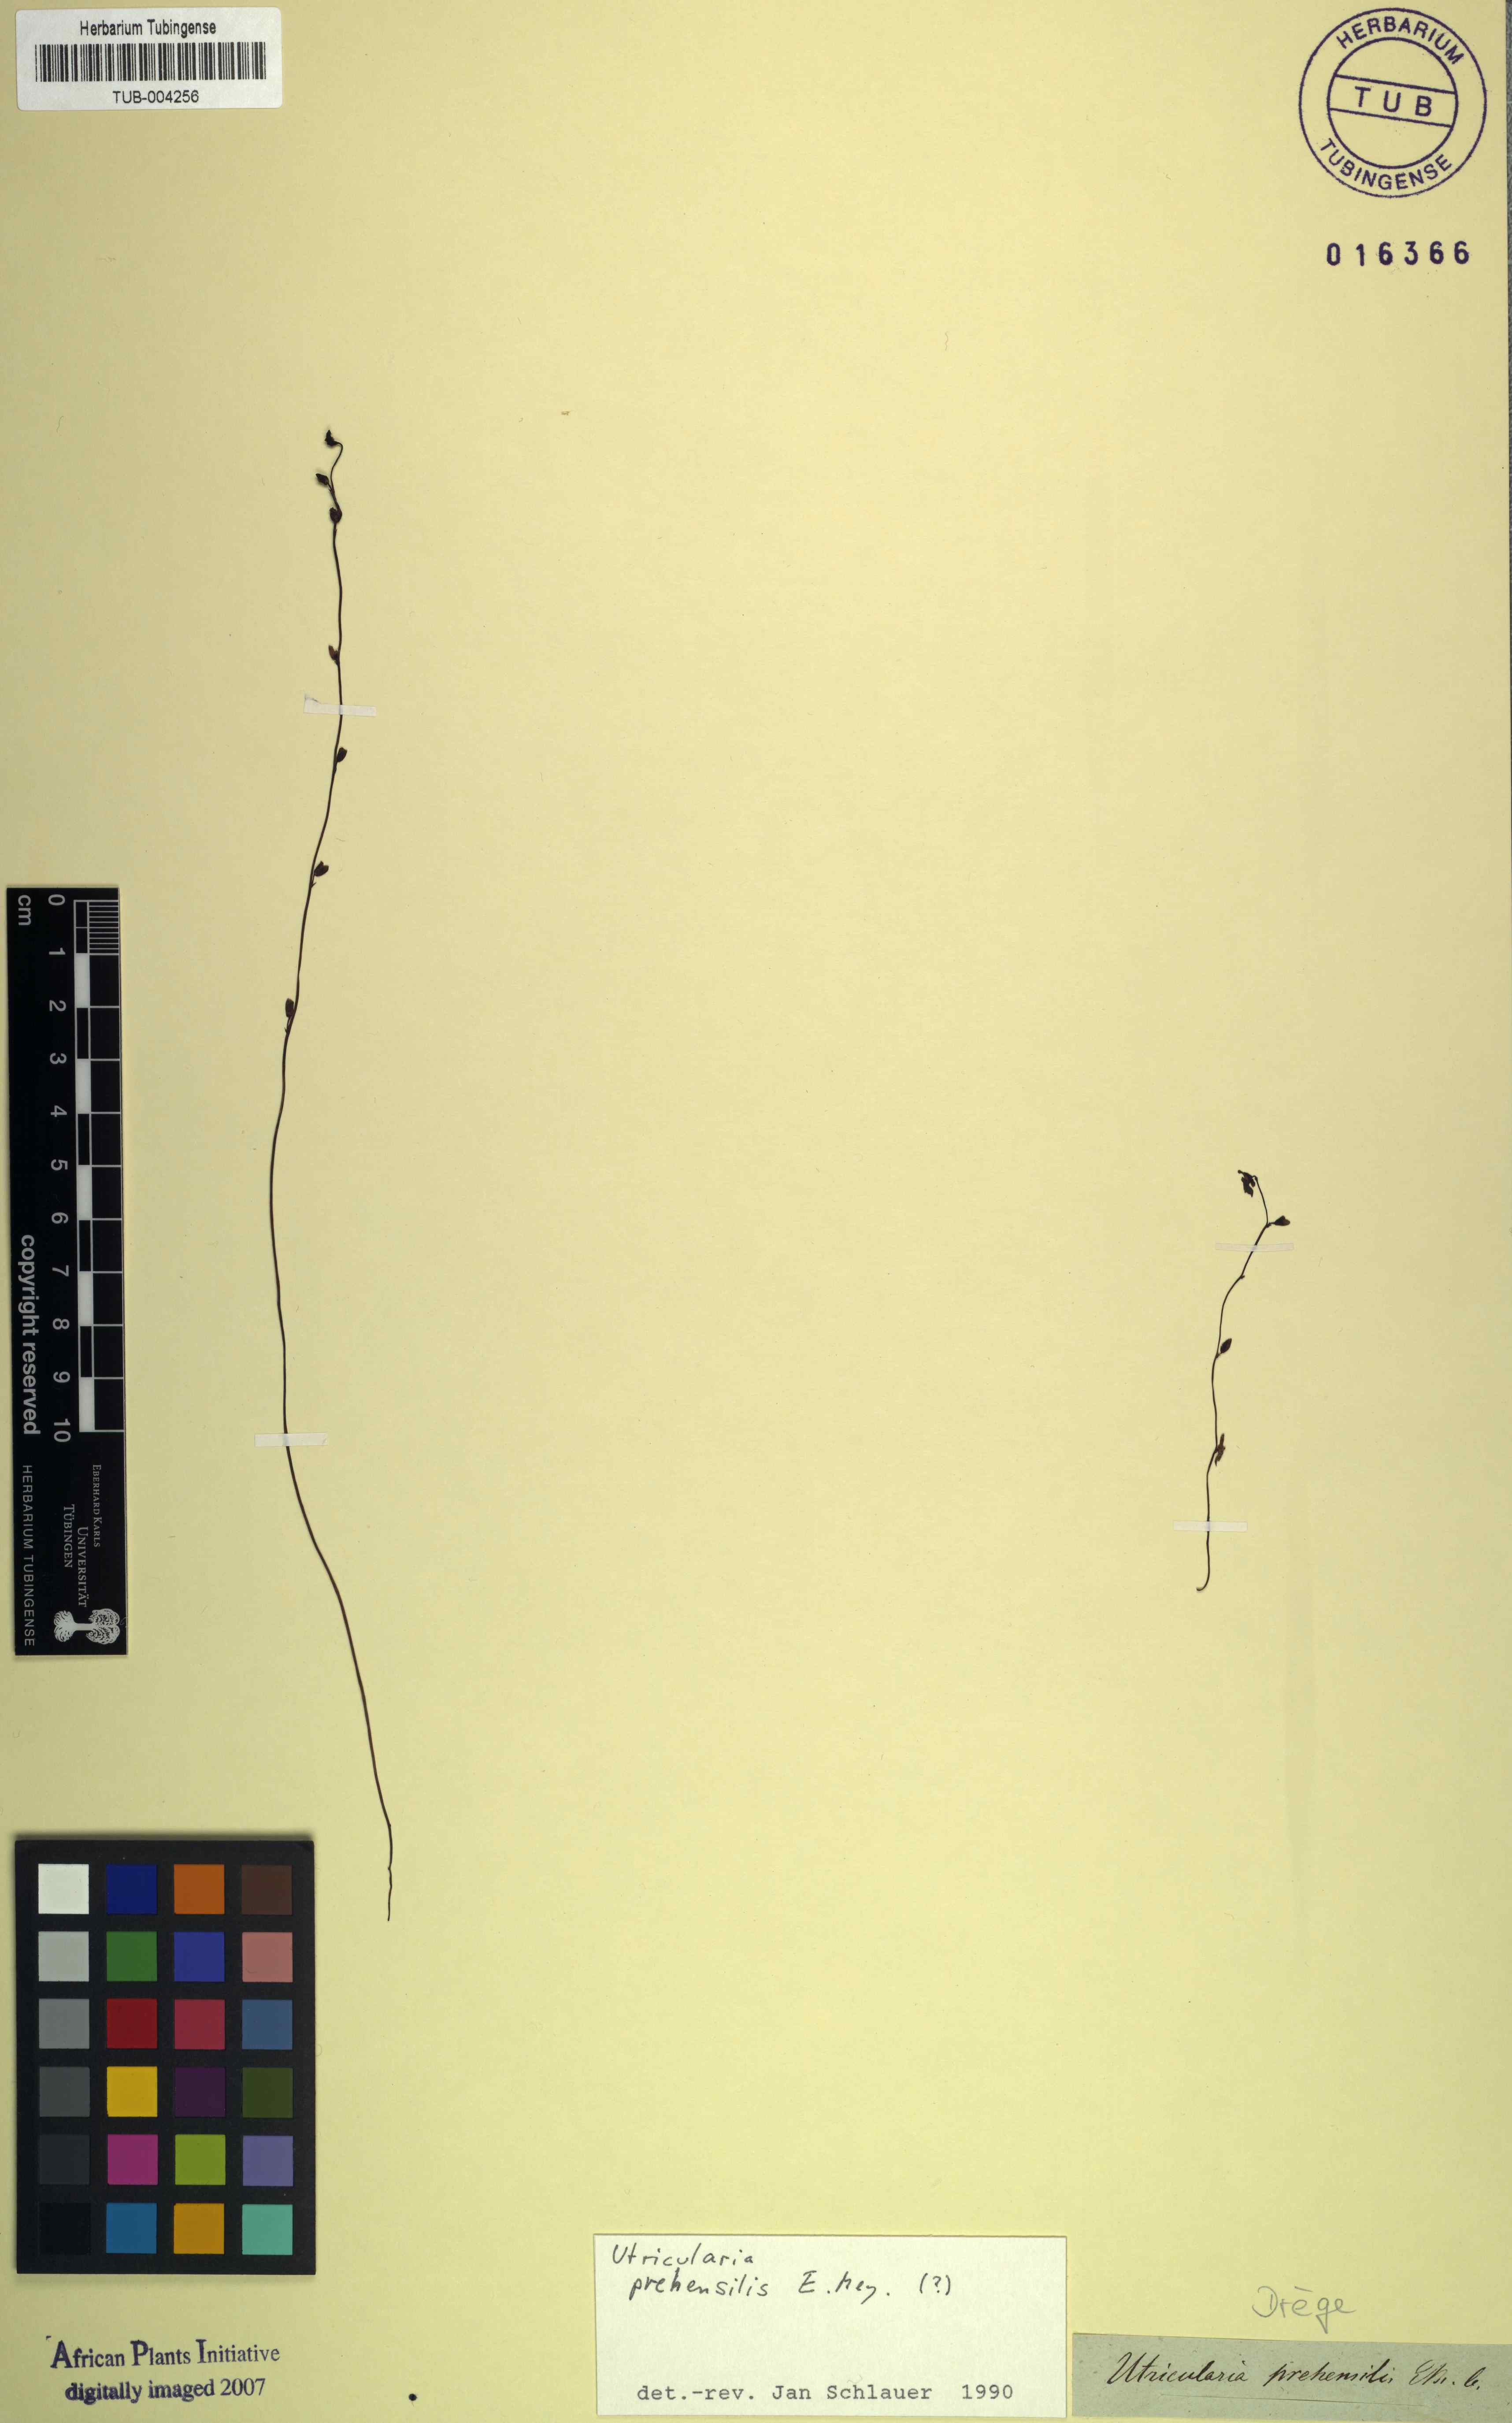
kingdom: Plantae
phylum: Tracheophyta
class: Magnoliopsida
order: Lamiales
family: Lentibulariaceae
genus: Utricularia
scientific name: Utricularia prehensilis
